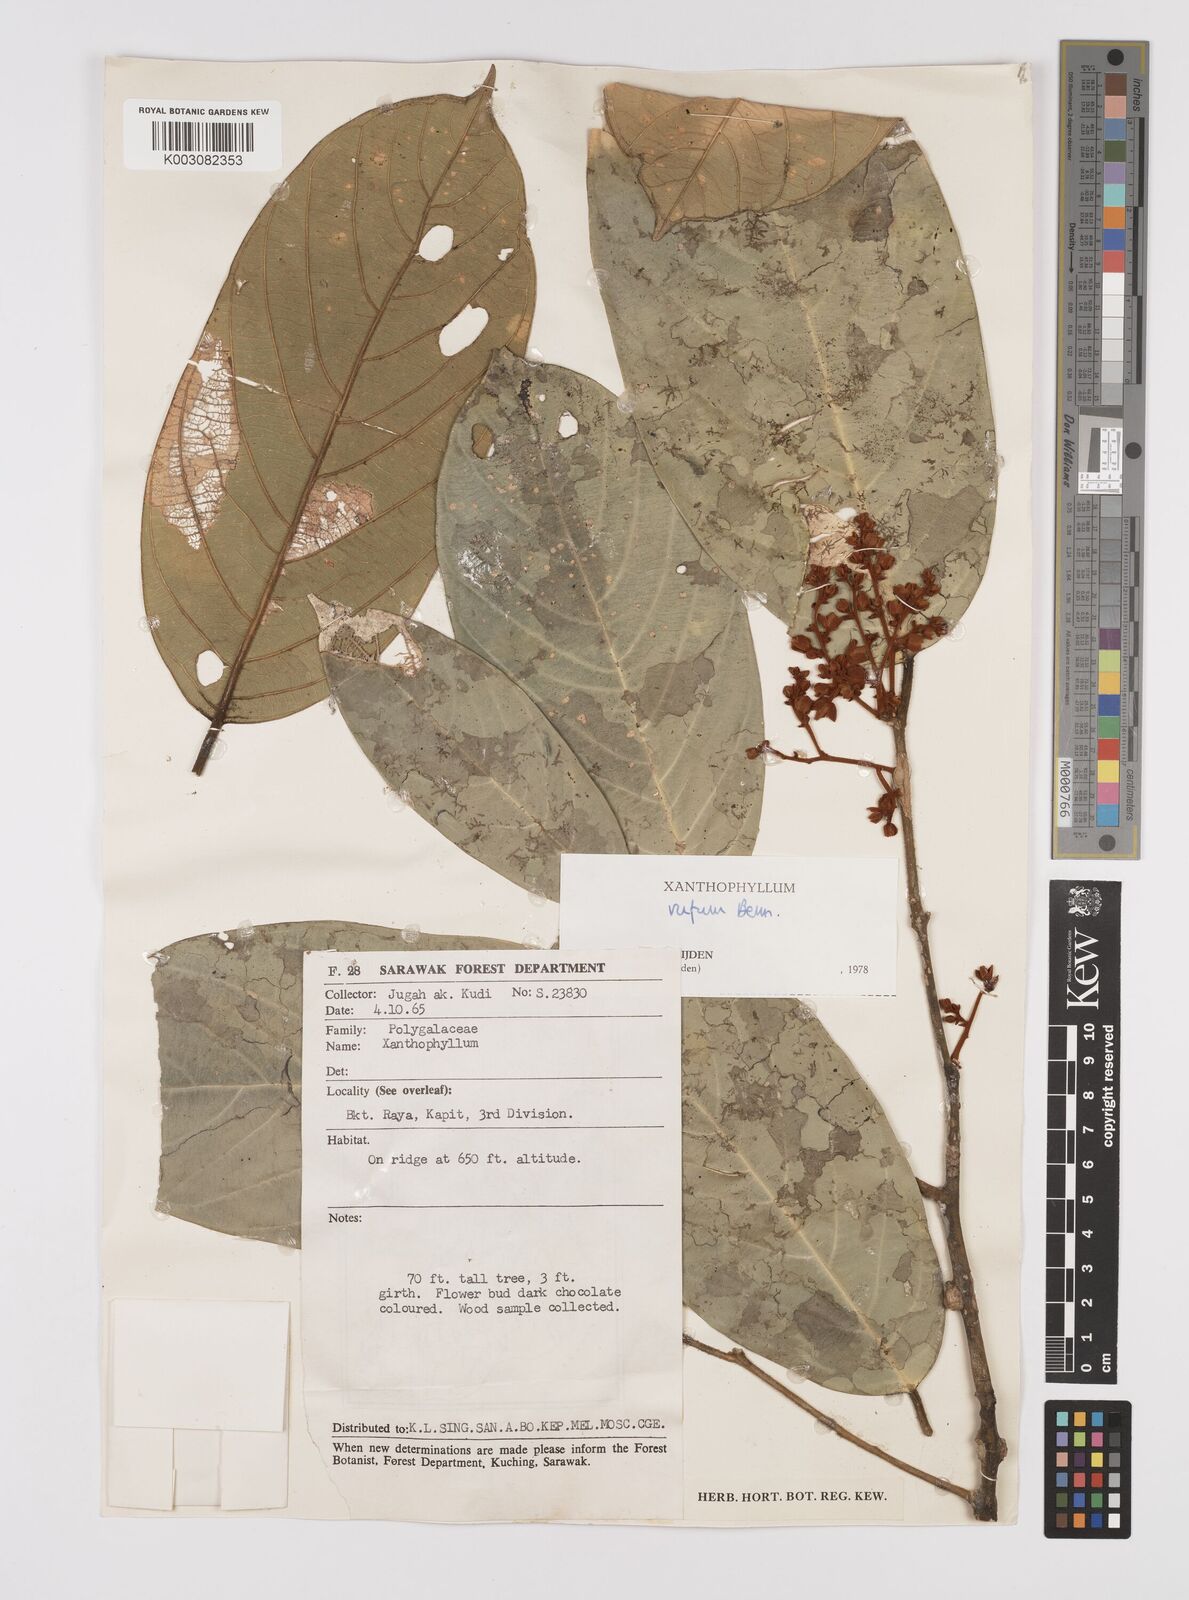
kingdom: Plantae
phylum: Tracheophyta
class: Magnoliopsida
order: Fabales
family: Polygalaceae
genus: Xanthophyllum
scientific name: Xanthophyllum rufum
